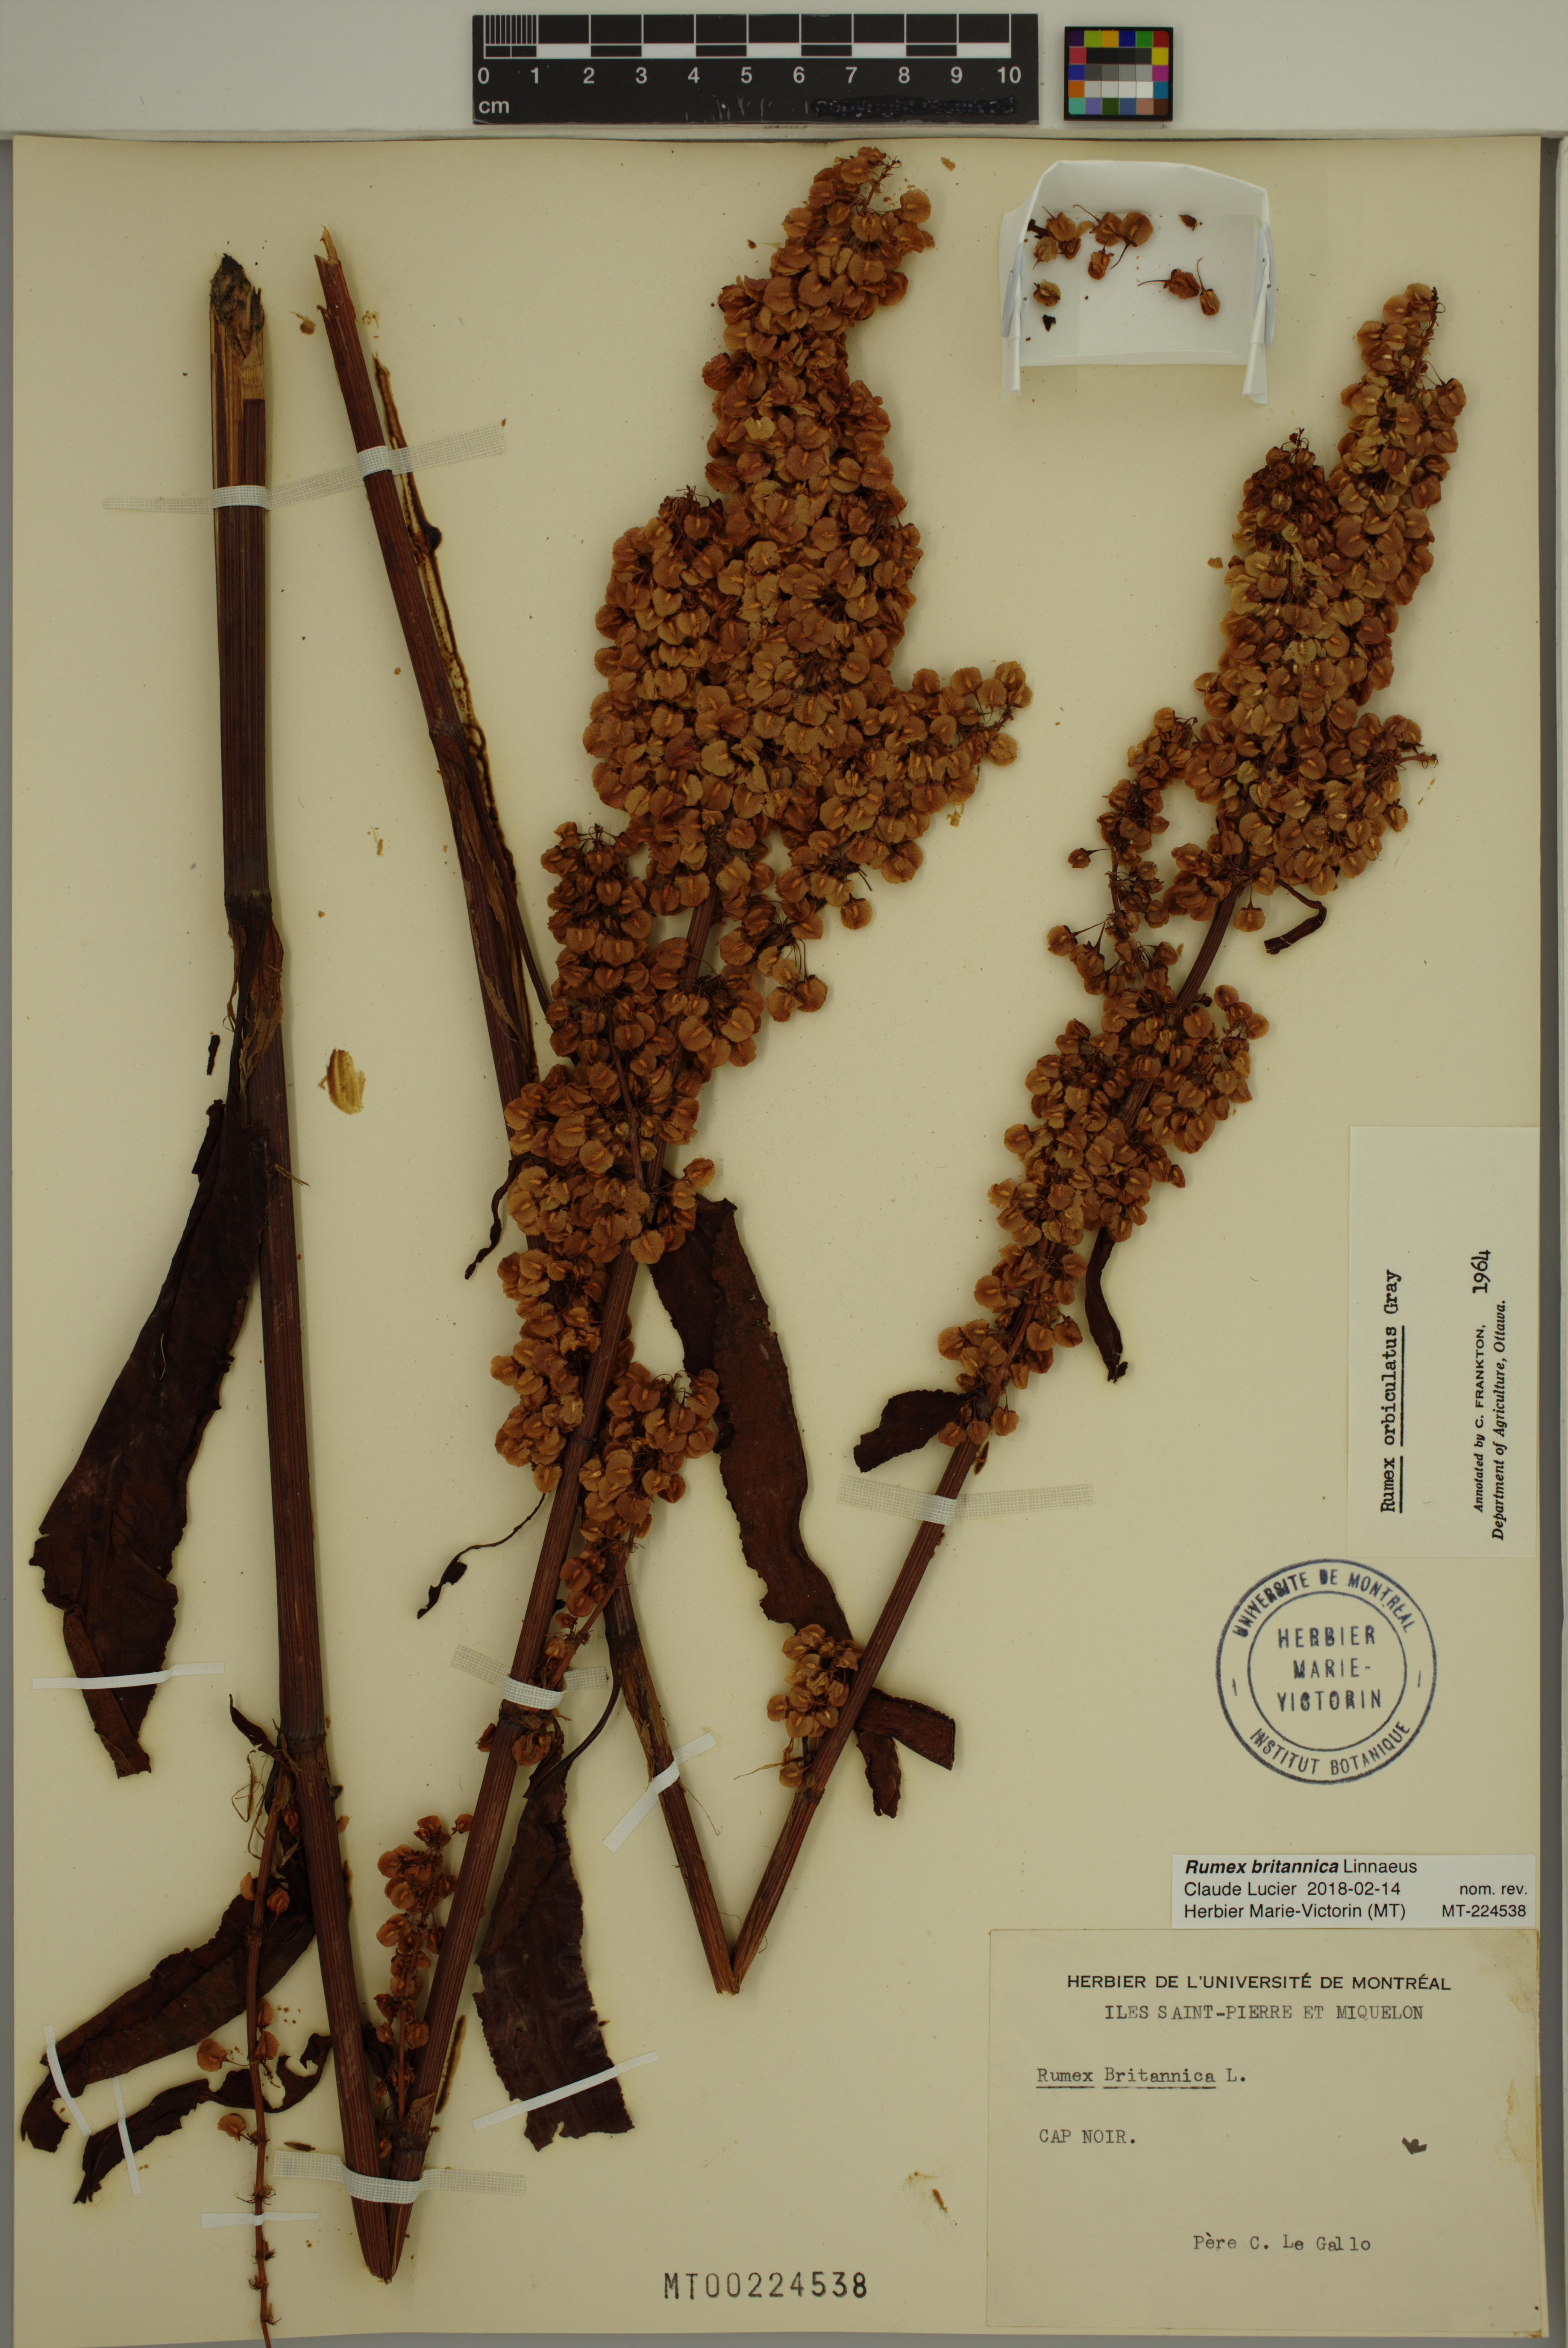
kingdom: Plantae
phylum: Tracheophyta
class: Magnoliopsida
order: Caryophyllales
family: Polygonaceae
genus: Rumex
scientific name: Rumex britannica
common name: British dock
